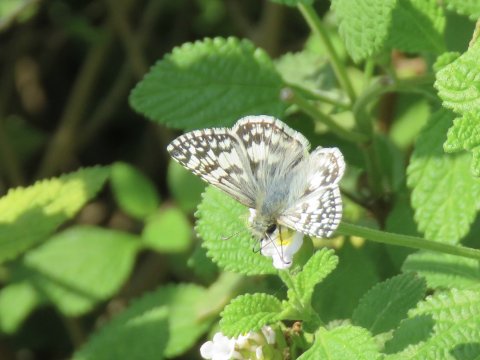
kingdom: Animalia
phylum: Arthropoda
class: Insecta
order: Lepidoptera
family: Hesperiidae
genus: Pyrgus
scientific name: Pyrgus communis
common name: White Checkered-Skipper
